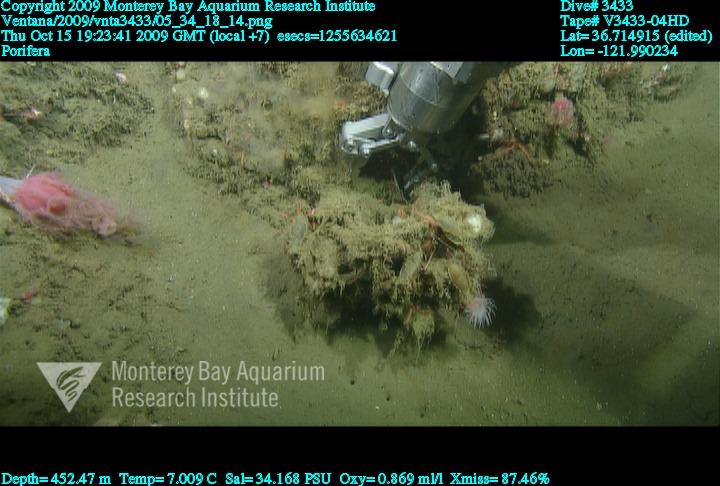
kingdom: Animalia
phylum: Porifera
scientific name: Porifera
